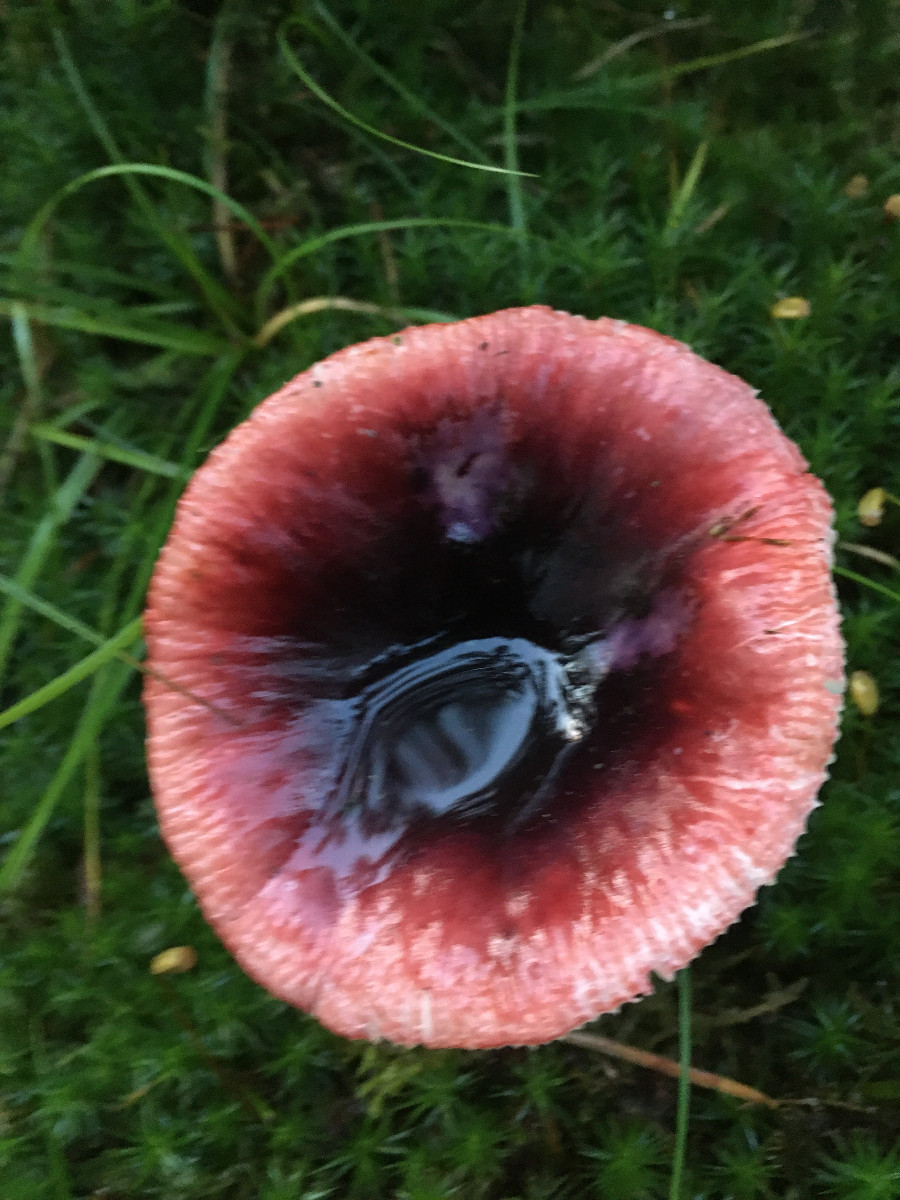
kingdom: Fungi
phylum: Basidiomycota
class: Agaricomycetes
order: Russulales
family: Russulaceae
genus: Russula
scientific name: Russula
